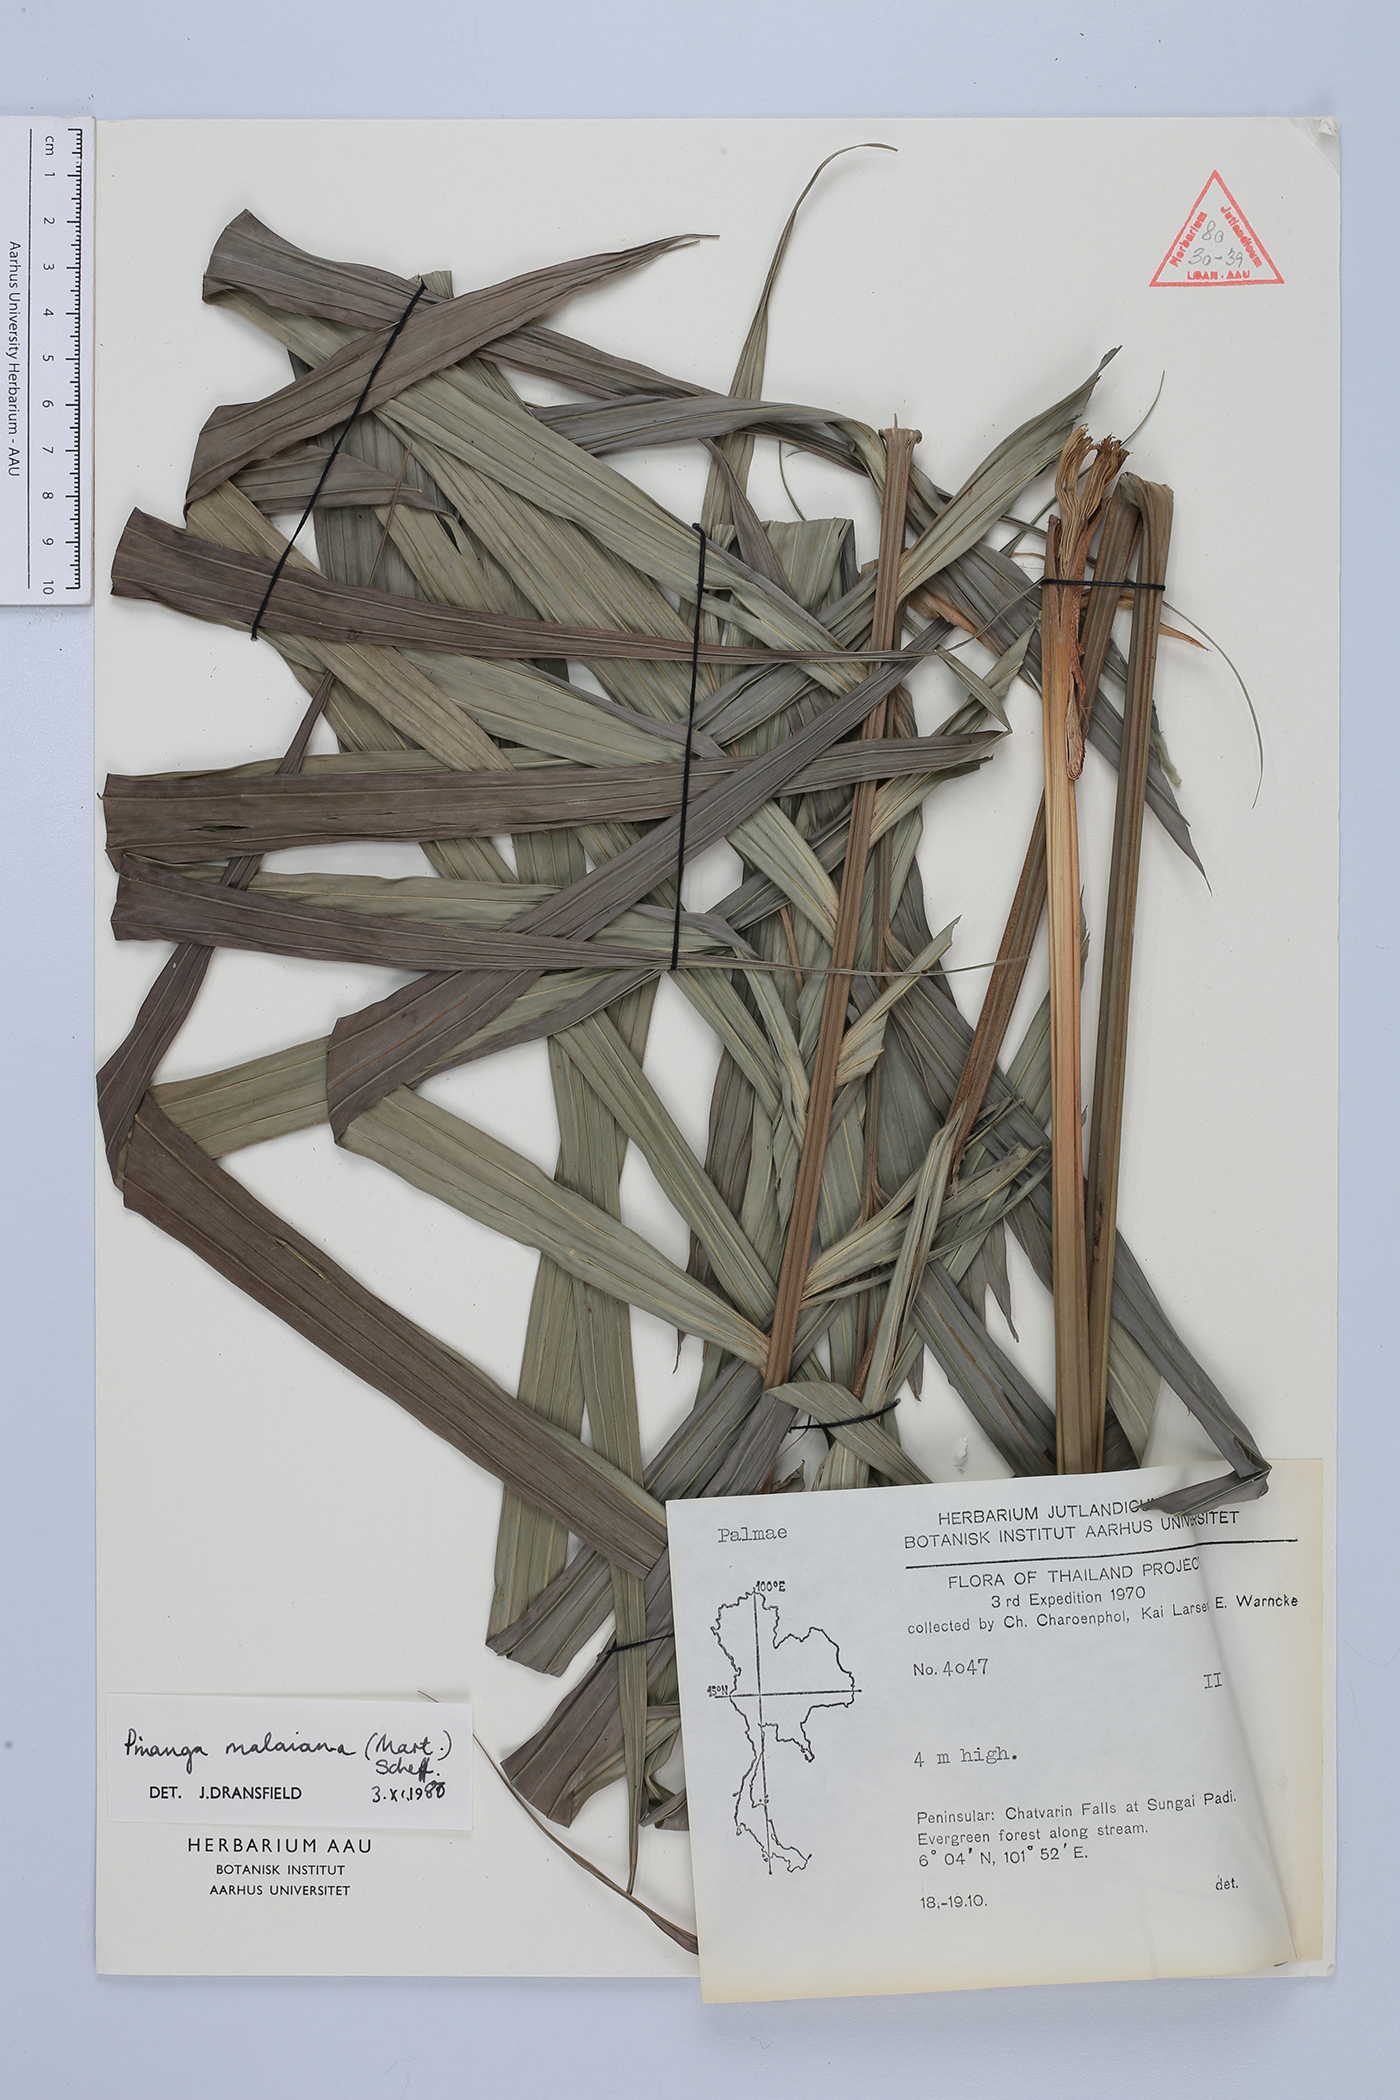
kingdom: Plantae
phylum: Tracheophyta
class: Liliopsida
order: Arecales
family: Arecaceae
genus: Pinanga
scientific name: Pinanga malaiana
